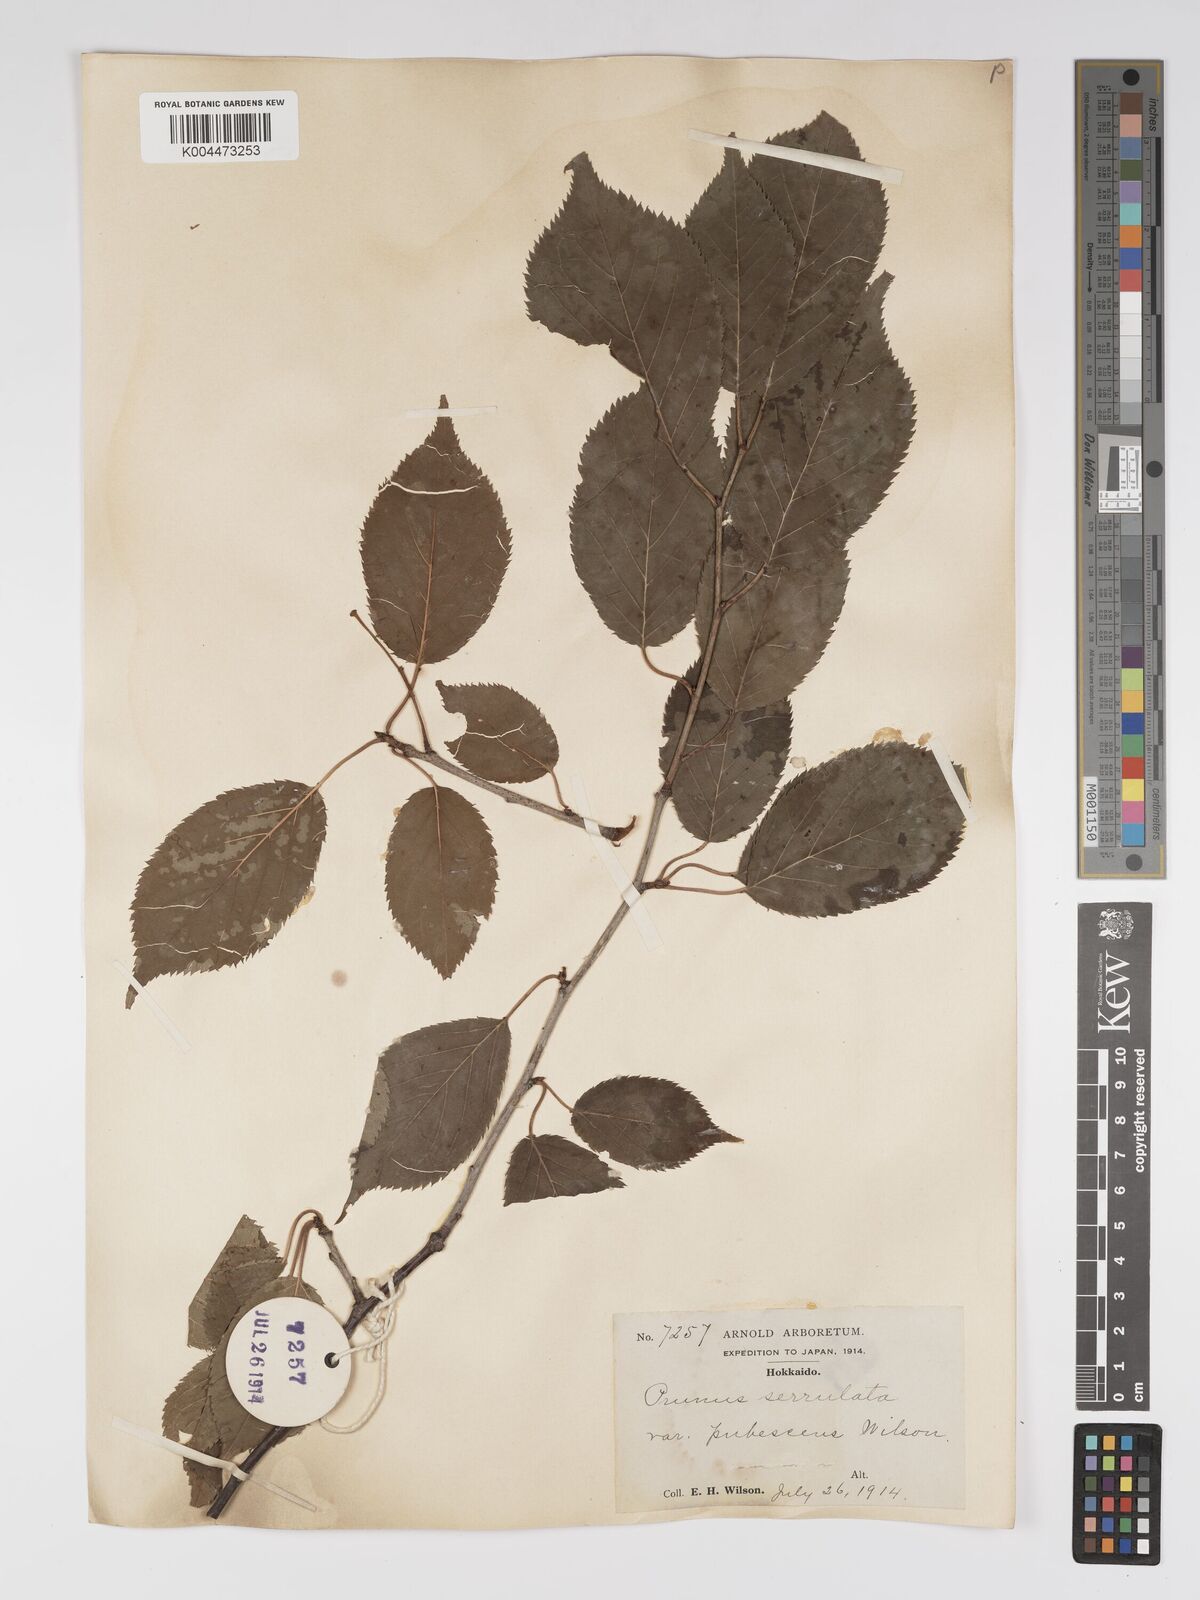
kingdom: Plantae
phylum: Tracheophyta
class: Magnoliopsida
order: Rosales
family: Rosaceae
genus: Prunus
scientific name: Prunus serrulata
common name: Japanese cherry
